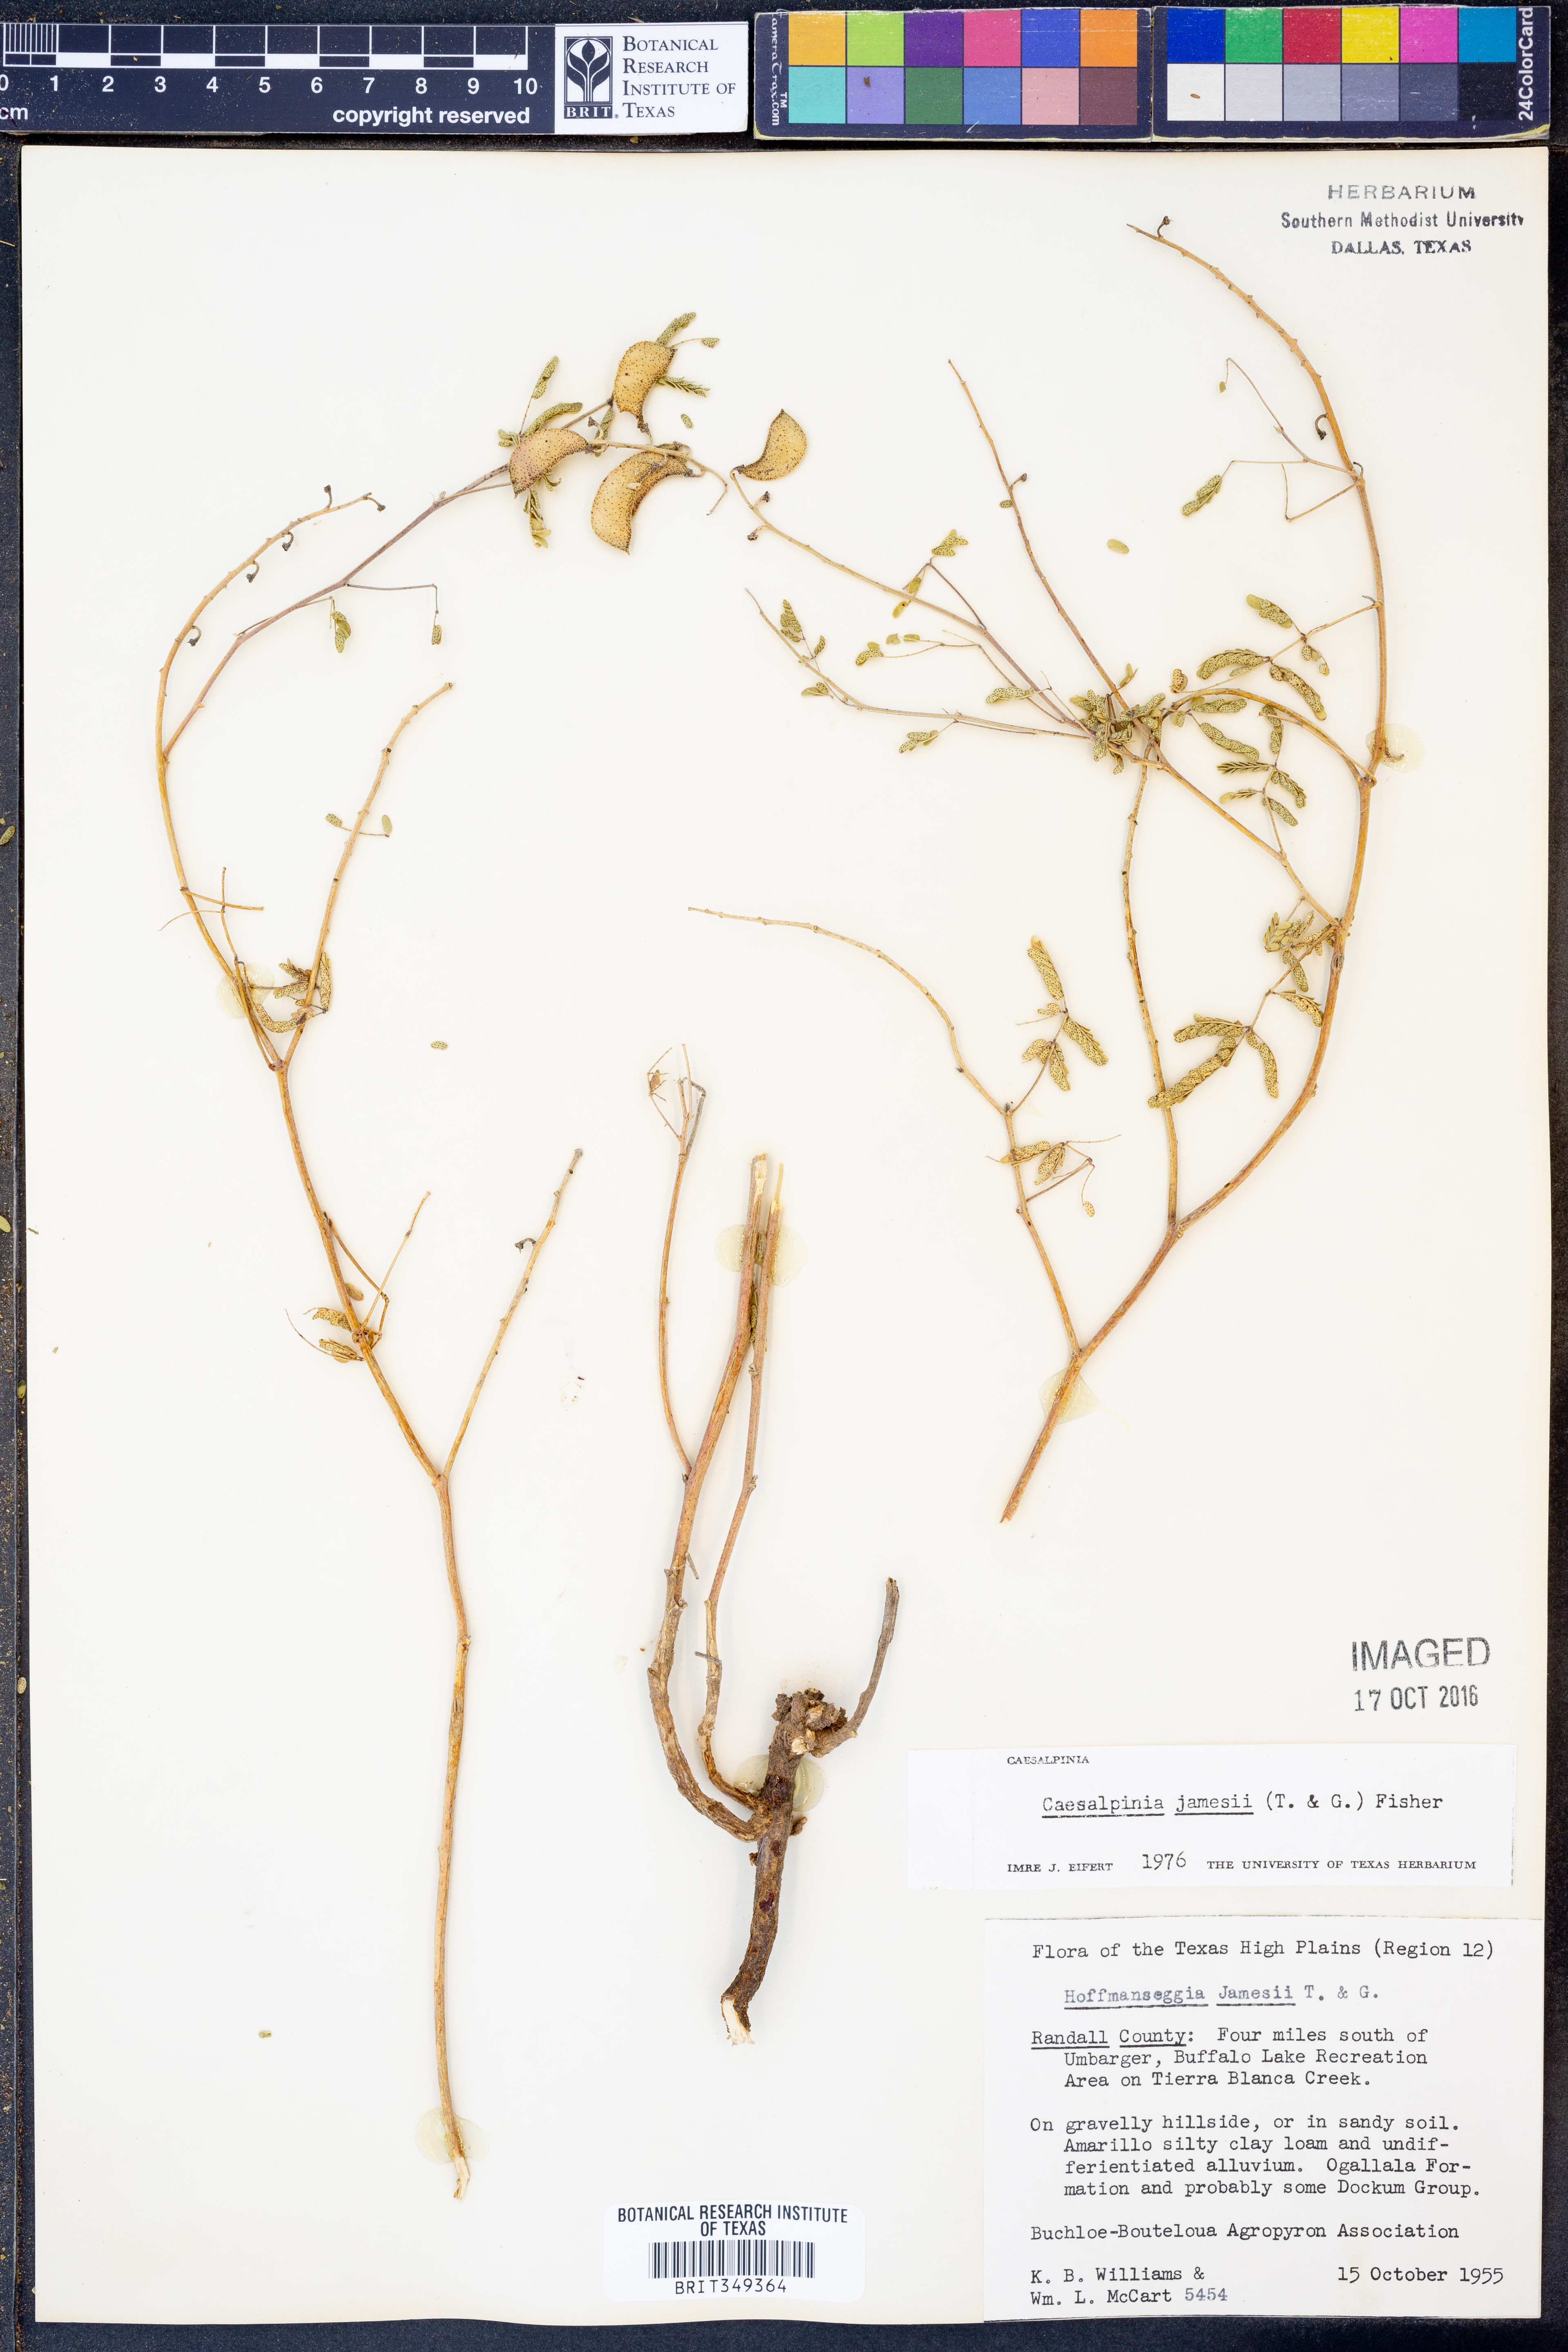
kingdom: Plantae
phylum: Tracheophyta
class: Magnoliopsida
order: Fabales
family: Fabaceae
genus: Pomaria
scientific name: Pomaria jamesii
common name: James' caesalpinia
